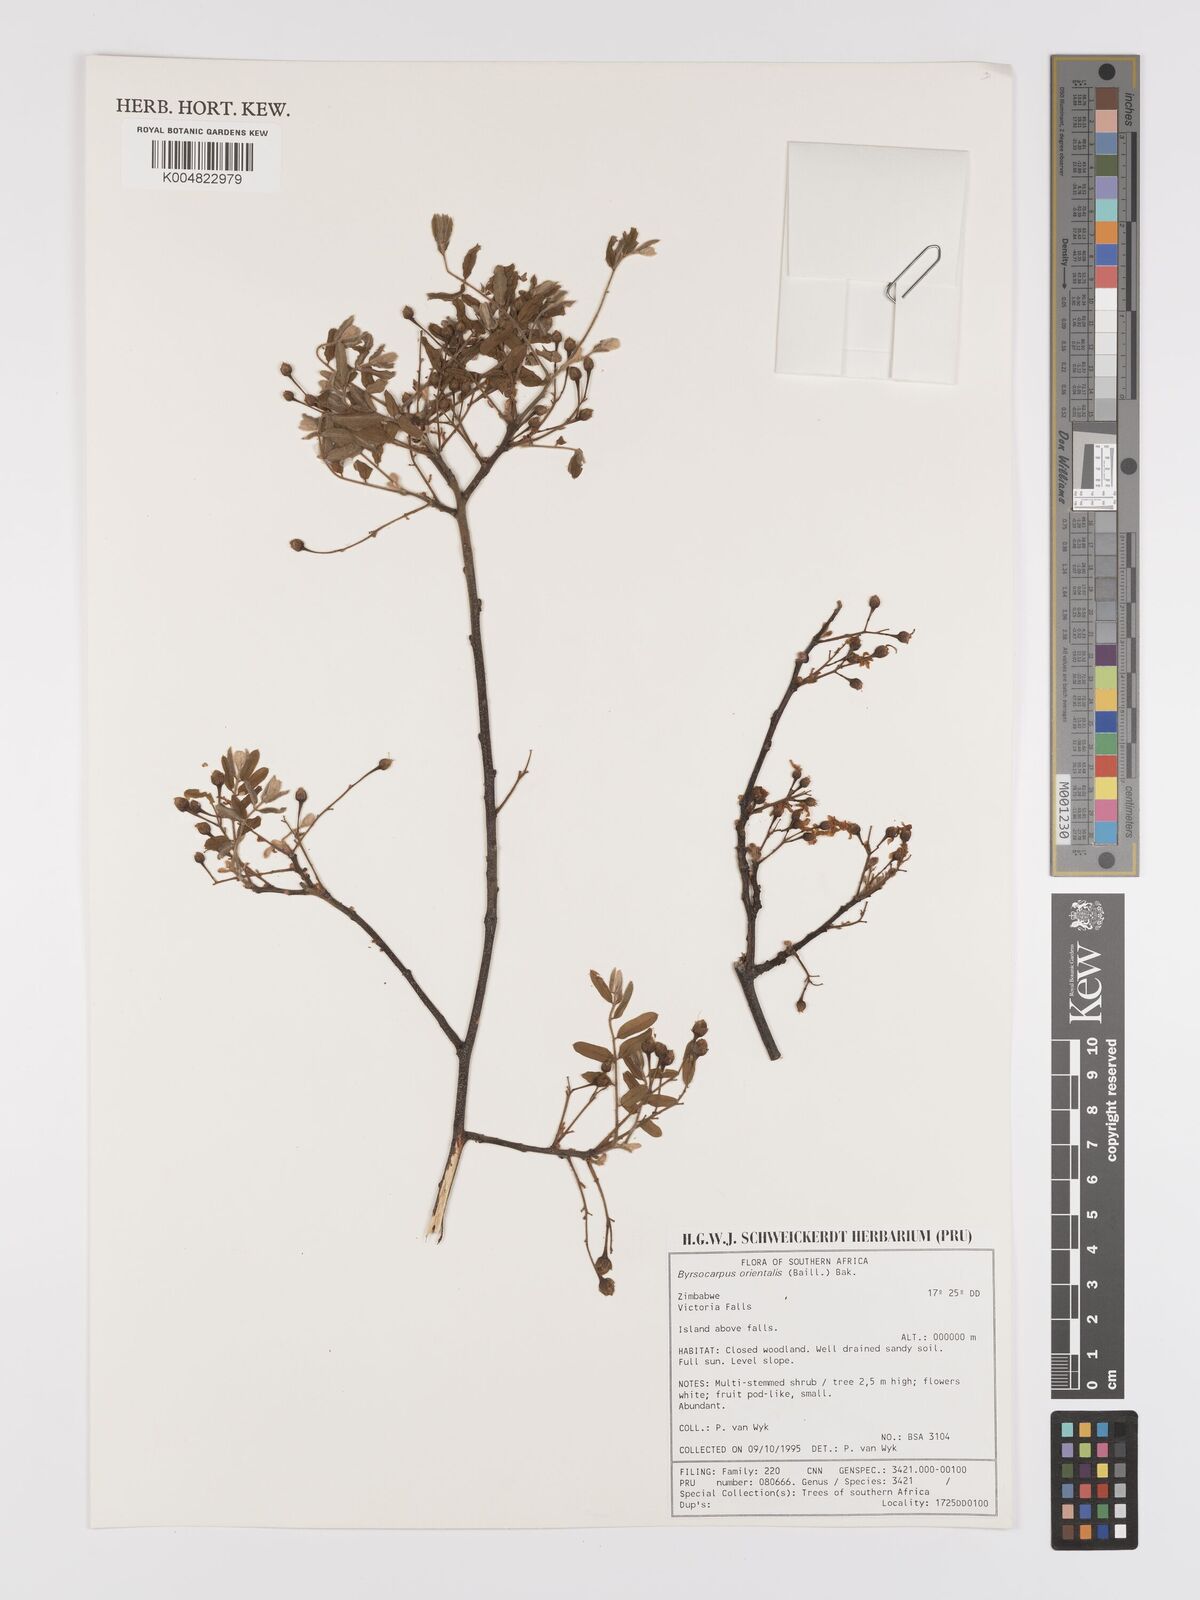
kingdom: Plantae
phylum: Tracheophyta
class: Magnoliopsida
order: Oxalidales
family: Connaraceae
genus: Rourea
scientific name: Rourea orientalis
